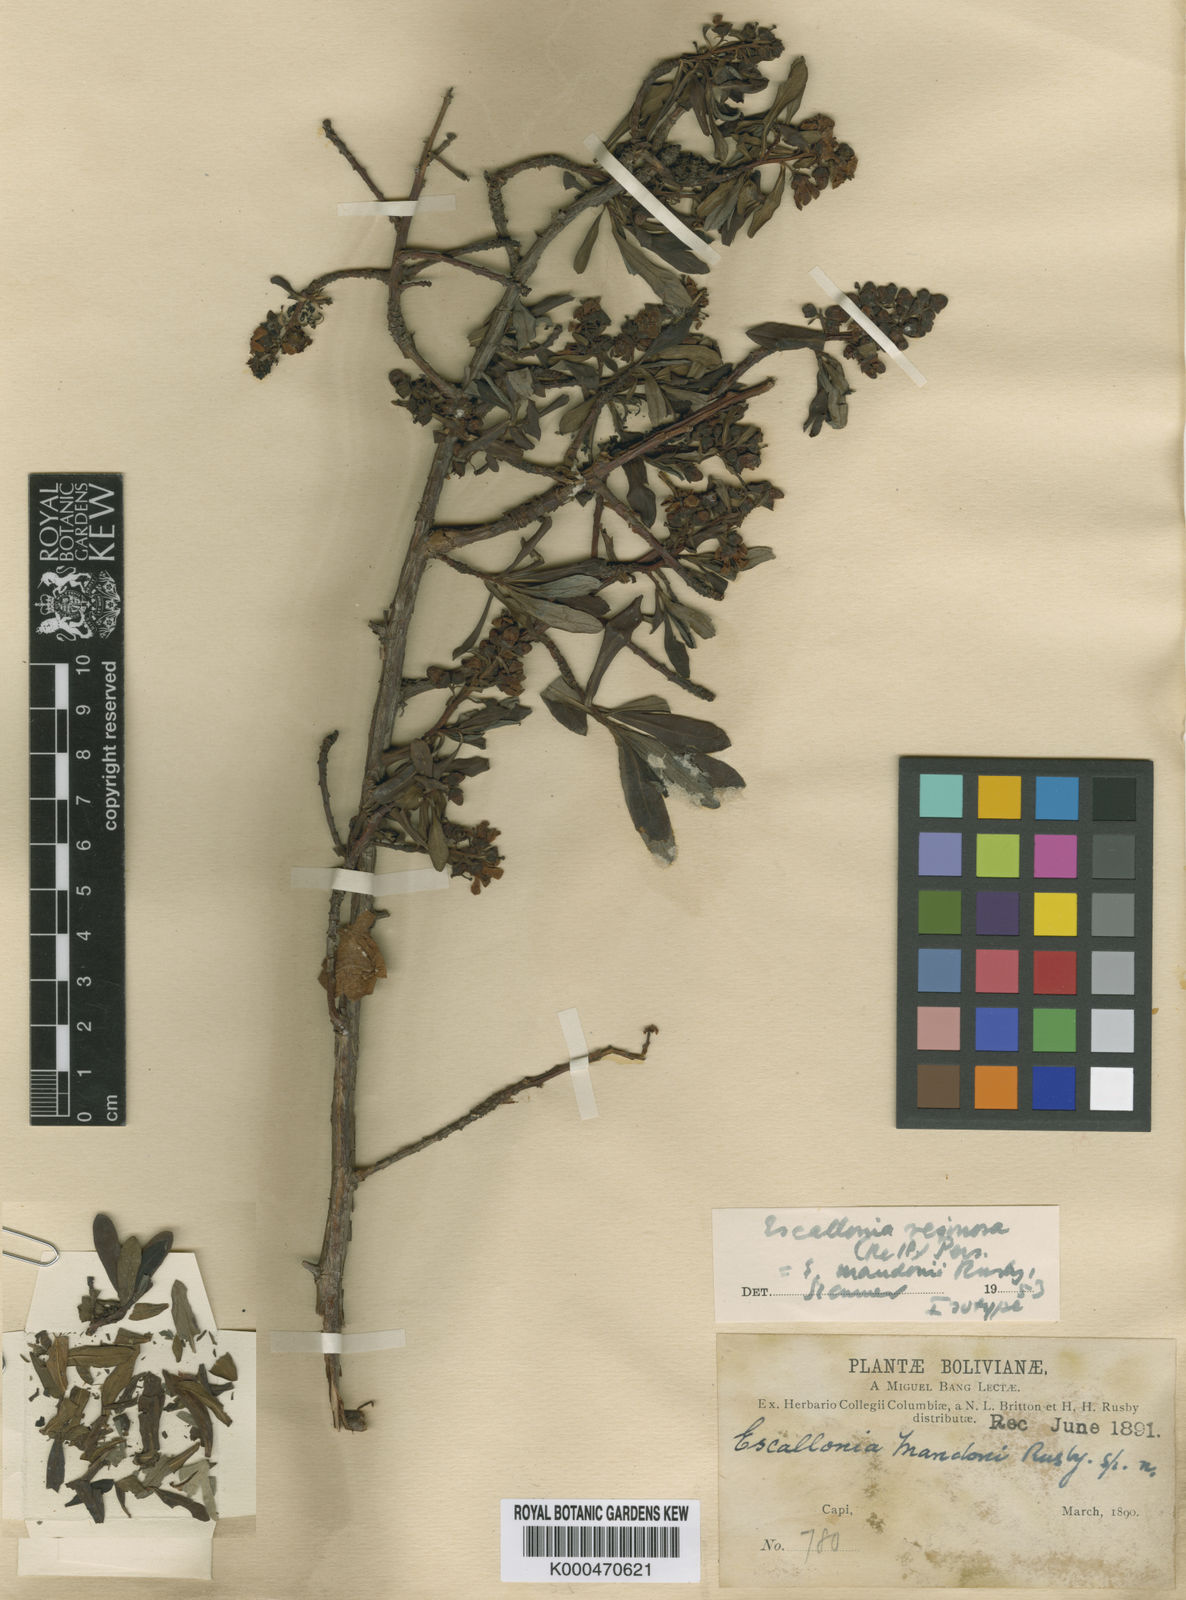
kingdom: Plantae
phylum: Tracheophyta
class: Magnoliopsida
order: Escalloniales
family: Escalloniaceae
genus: Escallonia
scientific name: Escallonia resinosa
